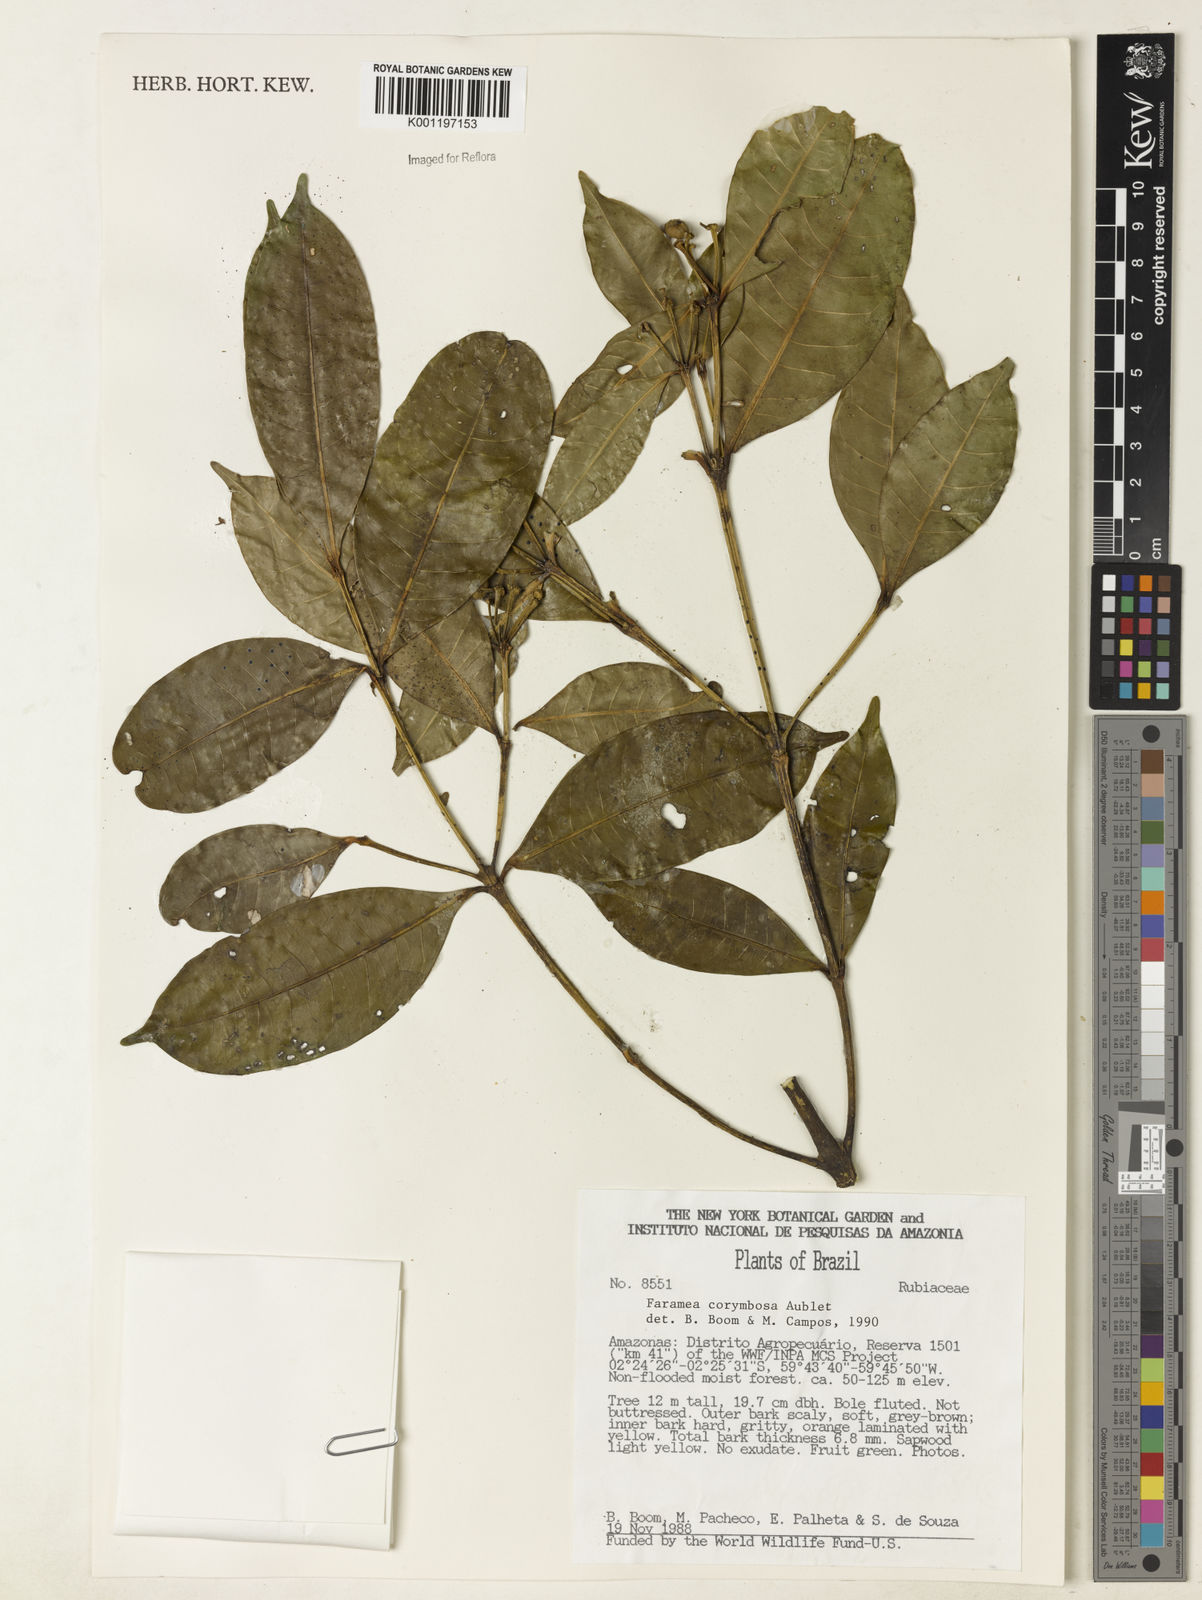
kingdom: Plantae
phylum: Tracheophyta
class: Magnoliopsida
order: Gentianales
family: Rubiaceae
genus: Faramea
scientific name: Faramea corymbosa
